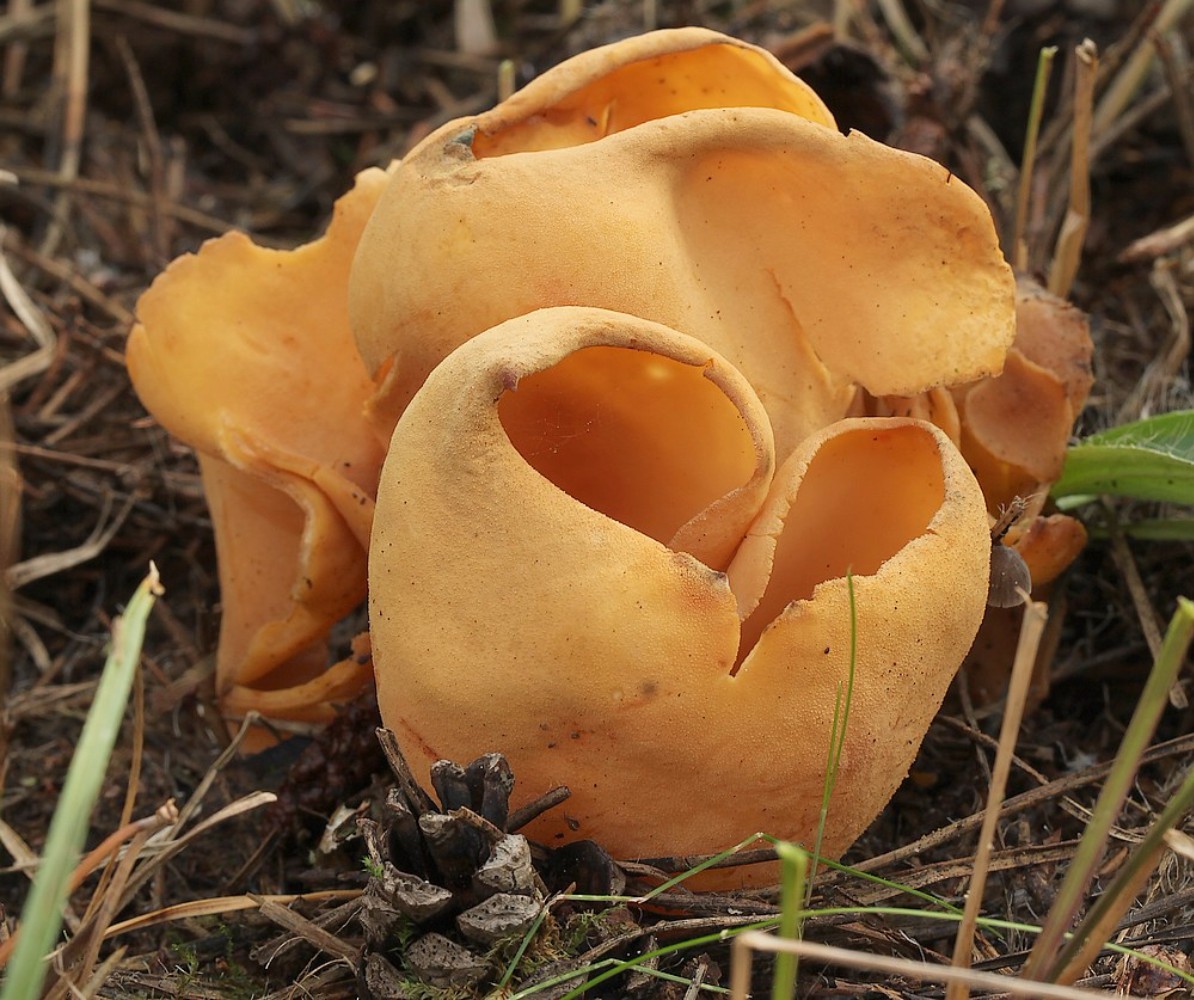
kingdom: Fungi
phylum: Ascomycota
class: Pezizomycetes
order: Pezizales
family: Otideaceae
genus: Otidea
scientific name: Otidea onotica
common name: æsel-ørebæger
